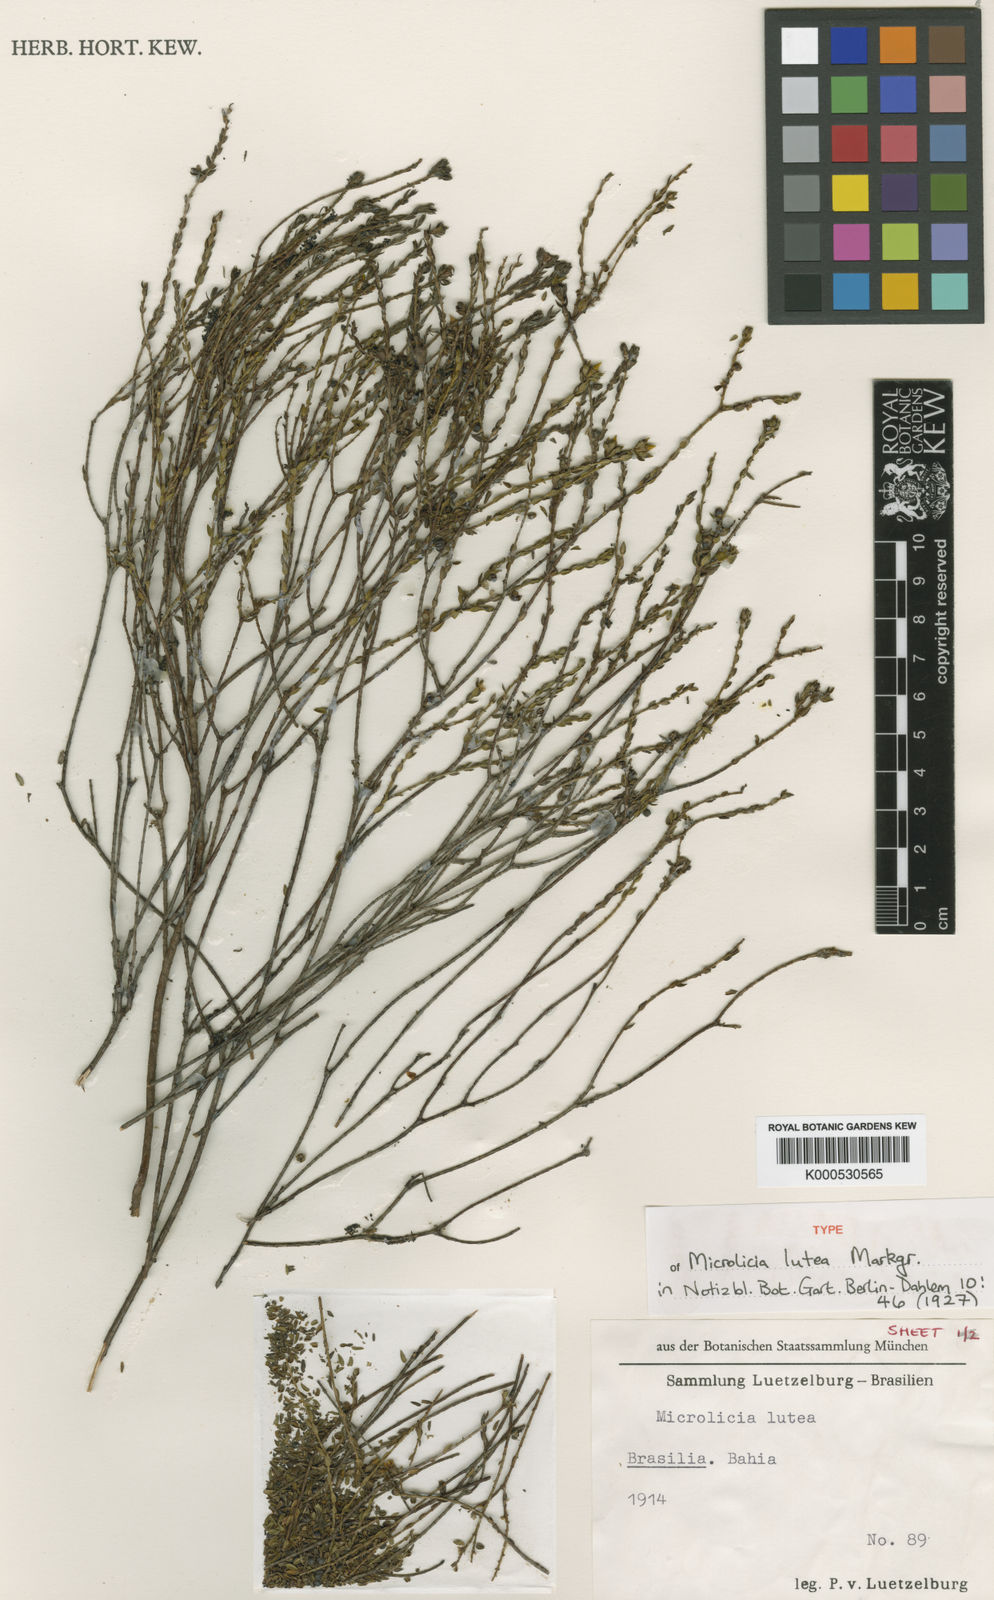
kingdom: Plantae
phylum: Tracheophyta
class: Magnoliopsida
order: Myrtales
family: Melastomataceae
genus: Microlicia
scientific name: Microlicia lutea
